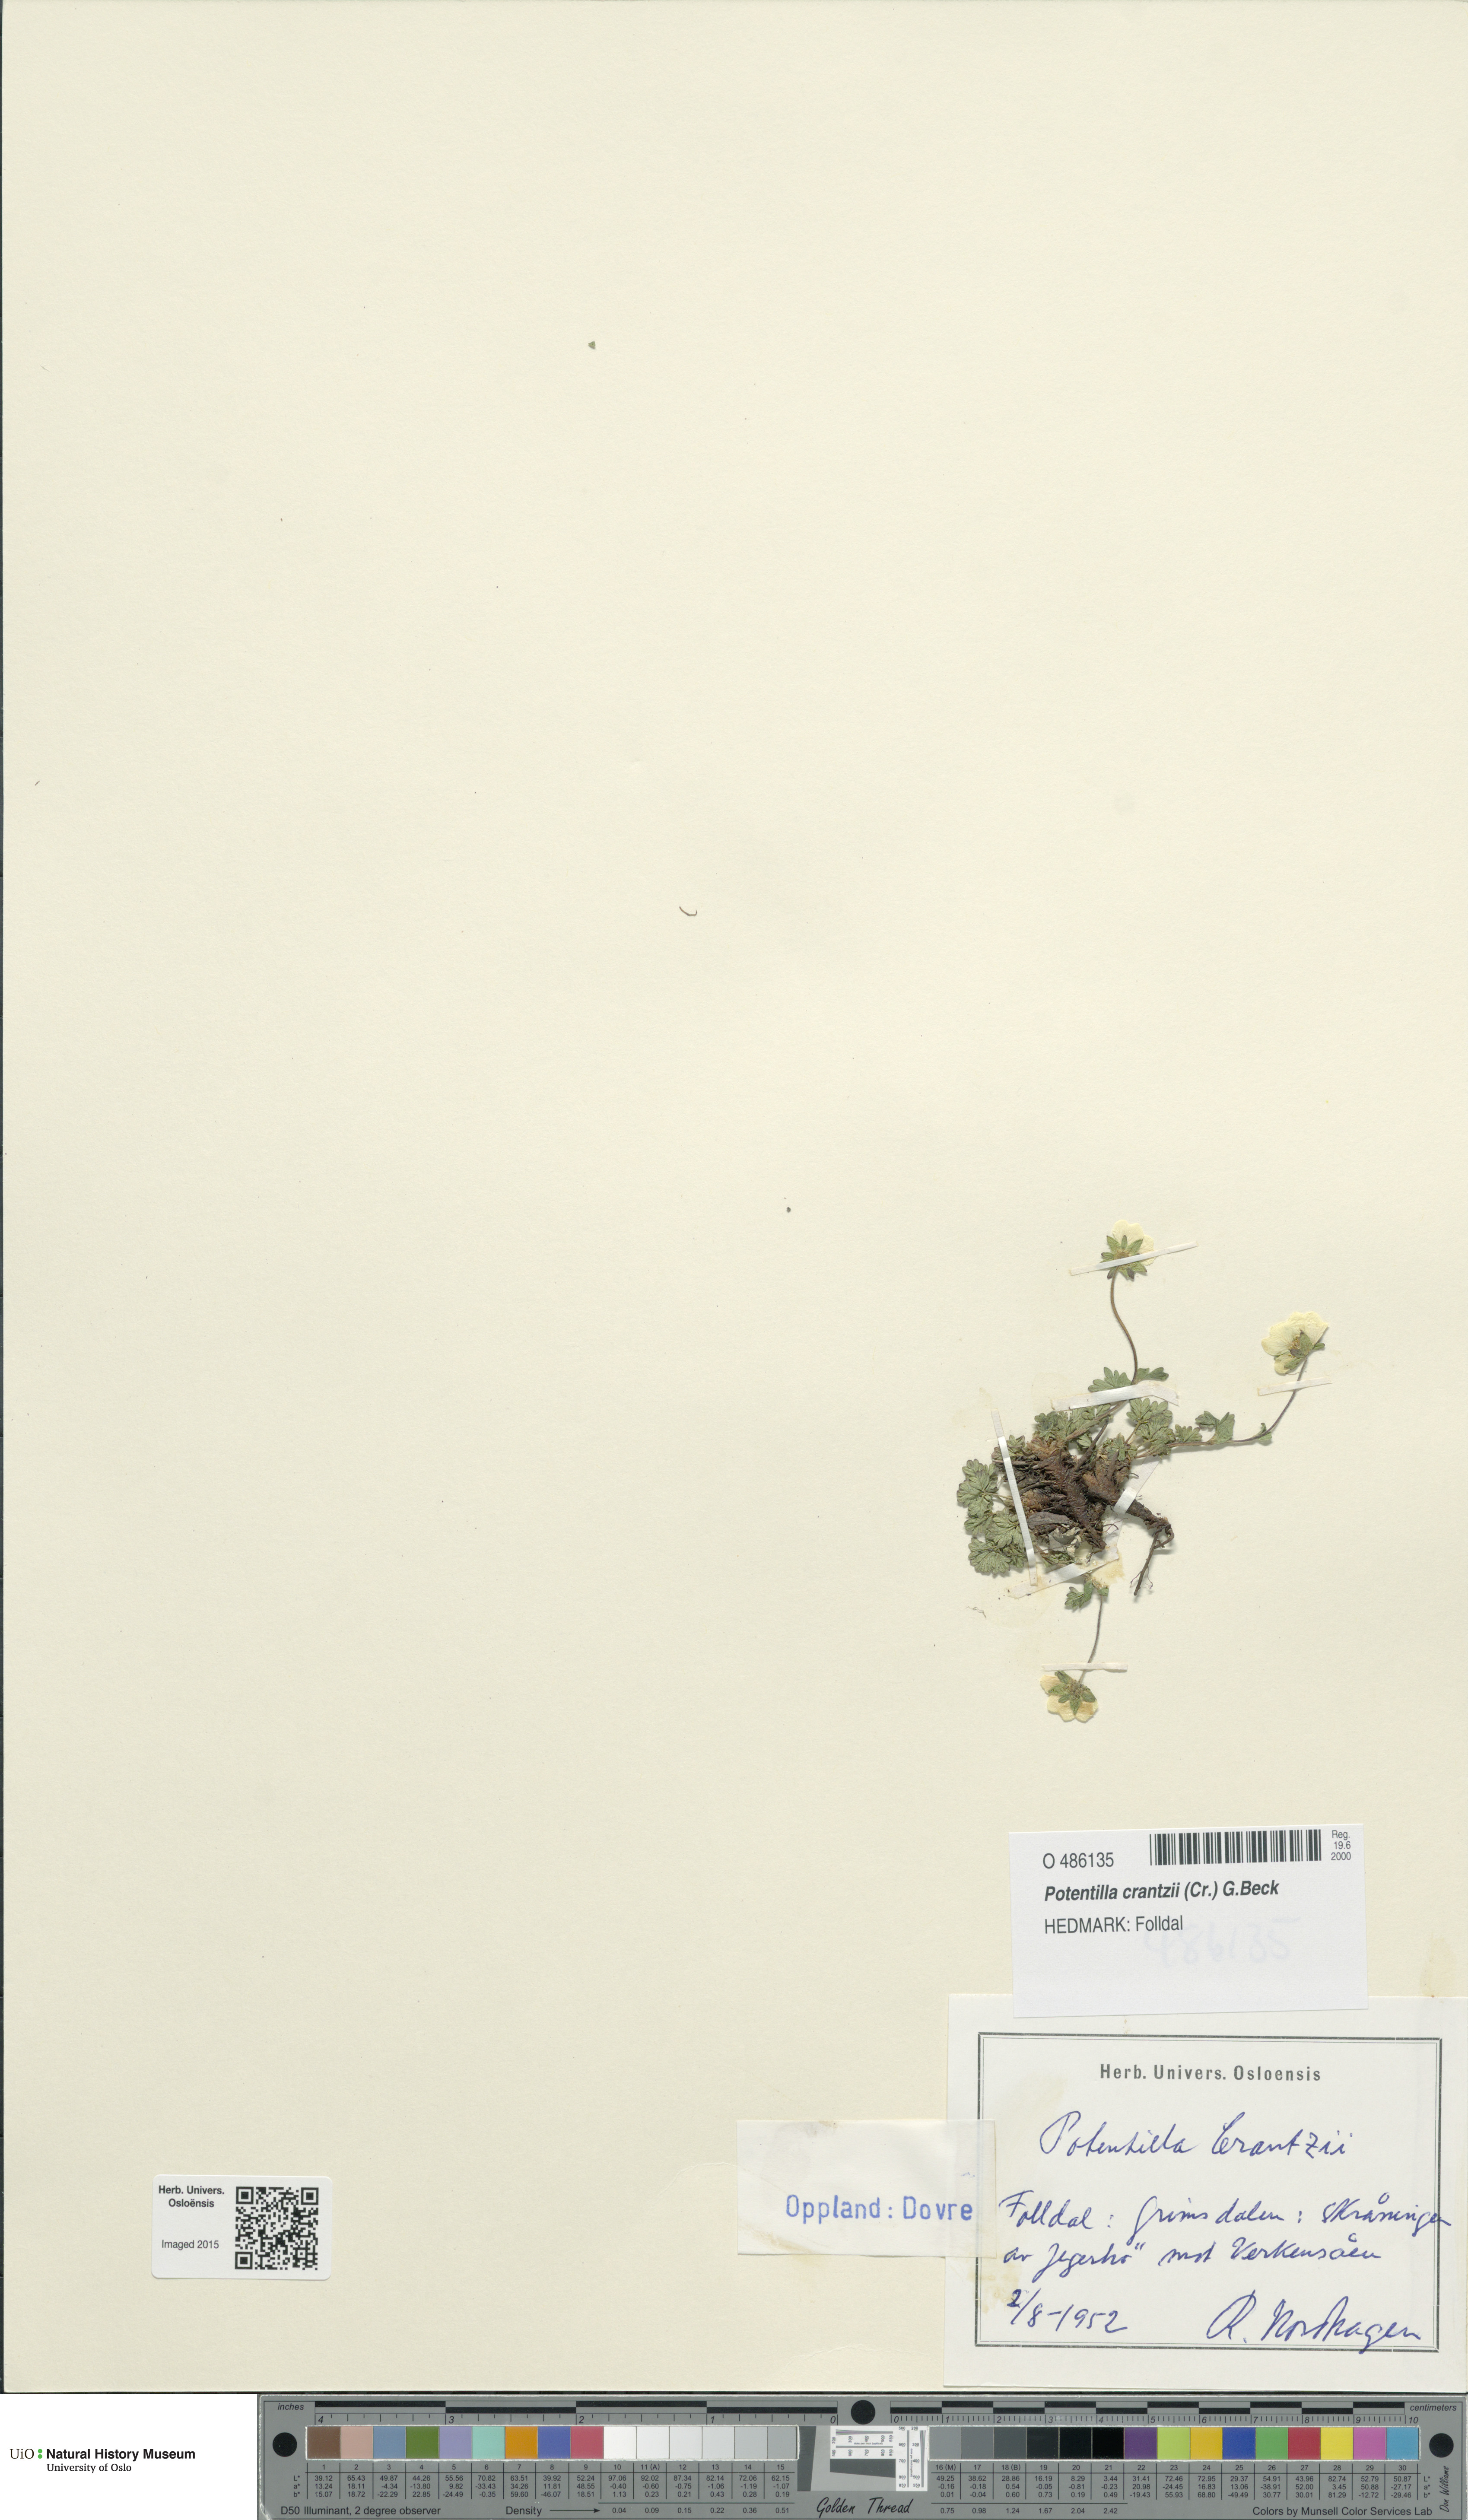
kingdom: Plantae
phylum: Tracheophyta
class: Magnoliopsida
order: Rosales
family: Rosaceae
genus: Potentilla
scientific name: Potentilla crantzii
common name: Alpine cinquefoil
